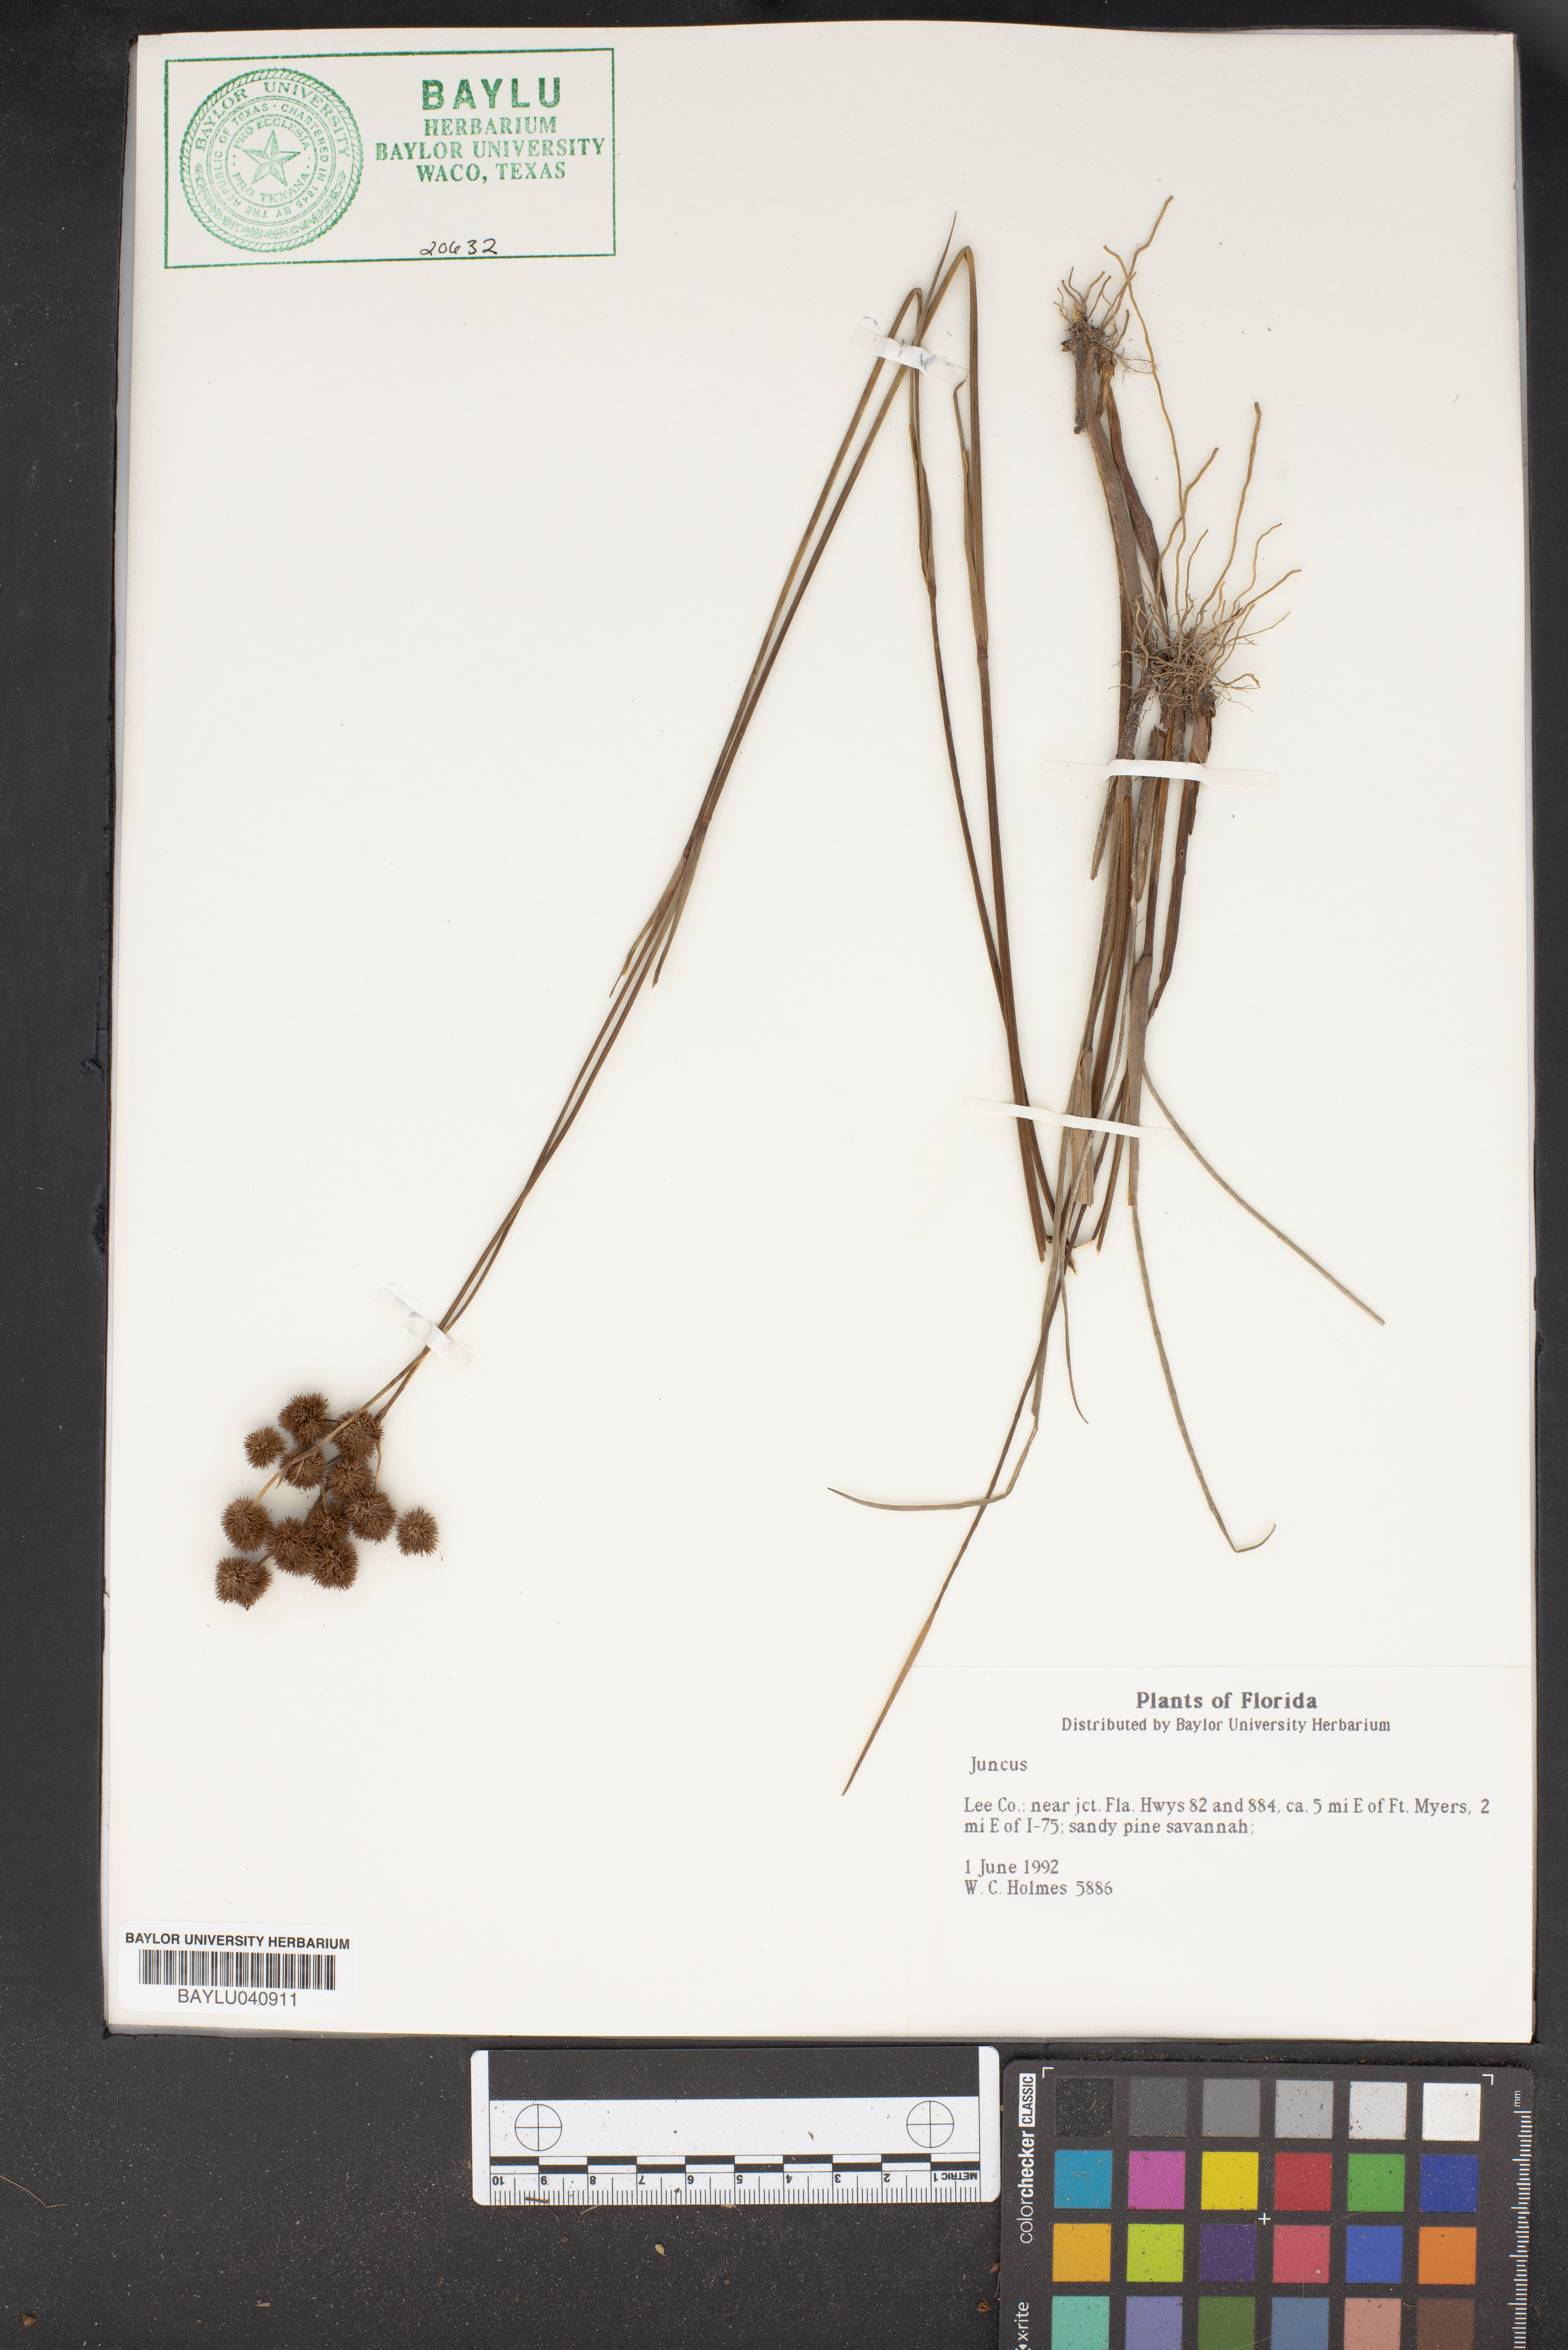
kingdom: Plantae
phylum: Tracheophyta
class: Liliopsida
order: Poales
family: Juncaceae
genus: Juncus
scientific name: Juncus
